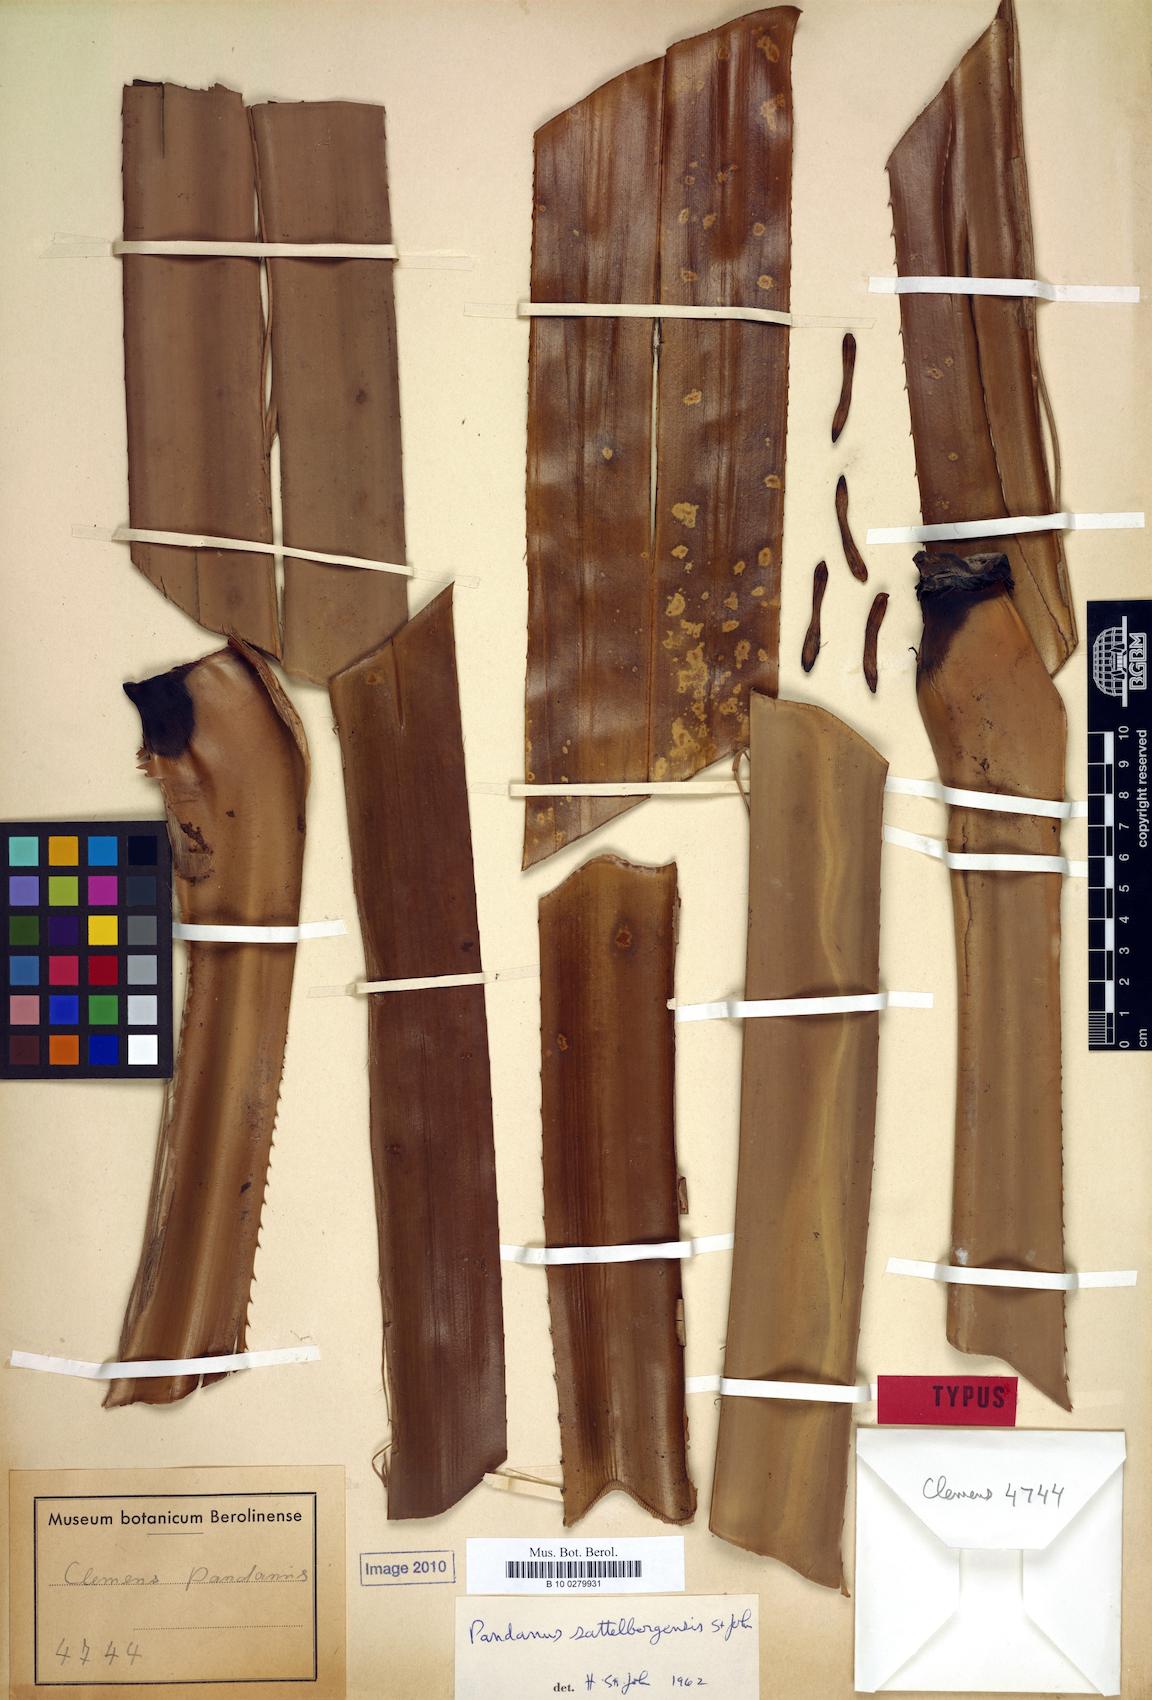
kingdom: Plantae
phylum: Tracheophyta
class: Liliopsida
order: Pandanales
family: Pandanaceae
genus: Pandanus
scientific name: Pandanus aggregatus
